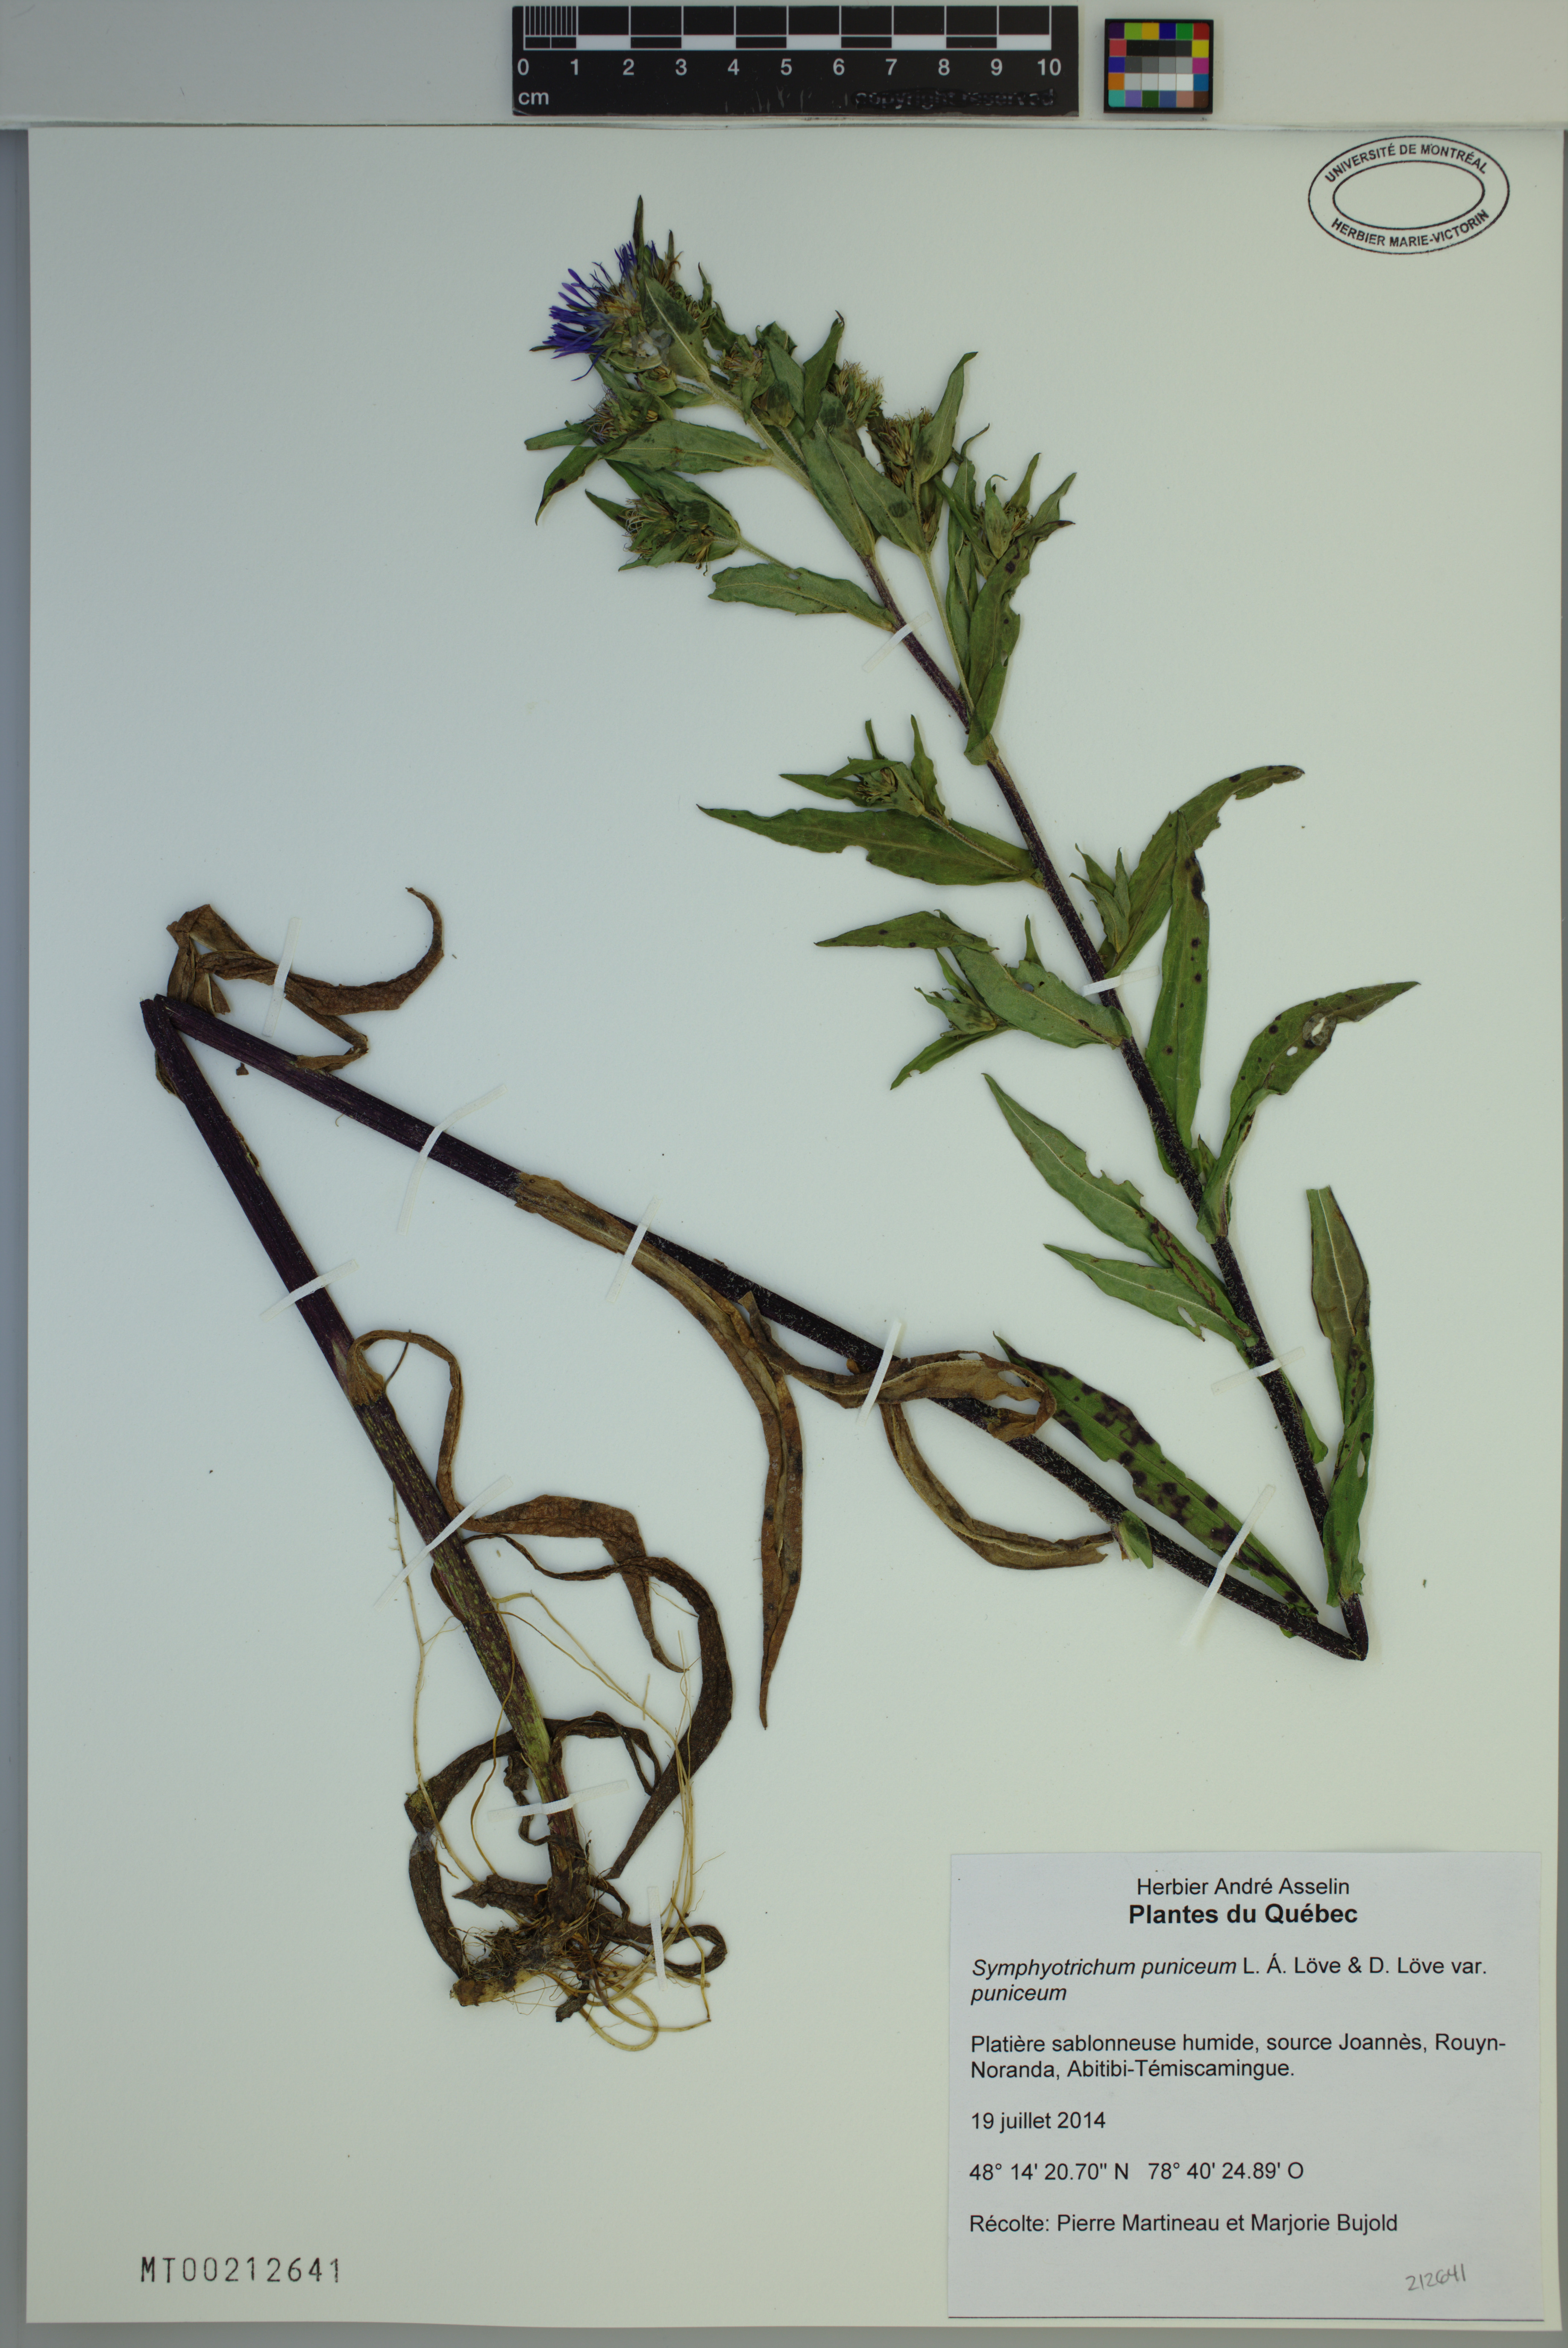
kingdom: Plantae
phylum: Tracheophyta
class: Magnoliopsida
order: Asterales
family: Asteraceae
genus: Symphyotrichum
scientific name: Symphyotrichum puniceum
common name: Bog aster
